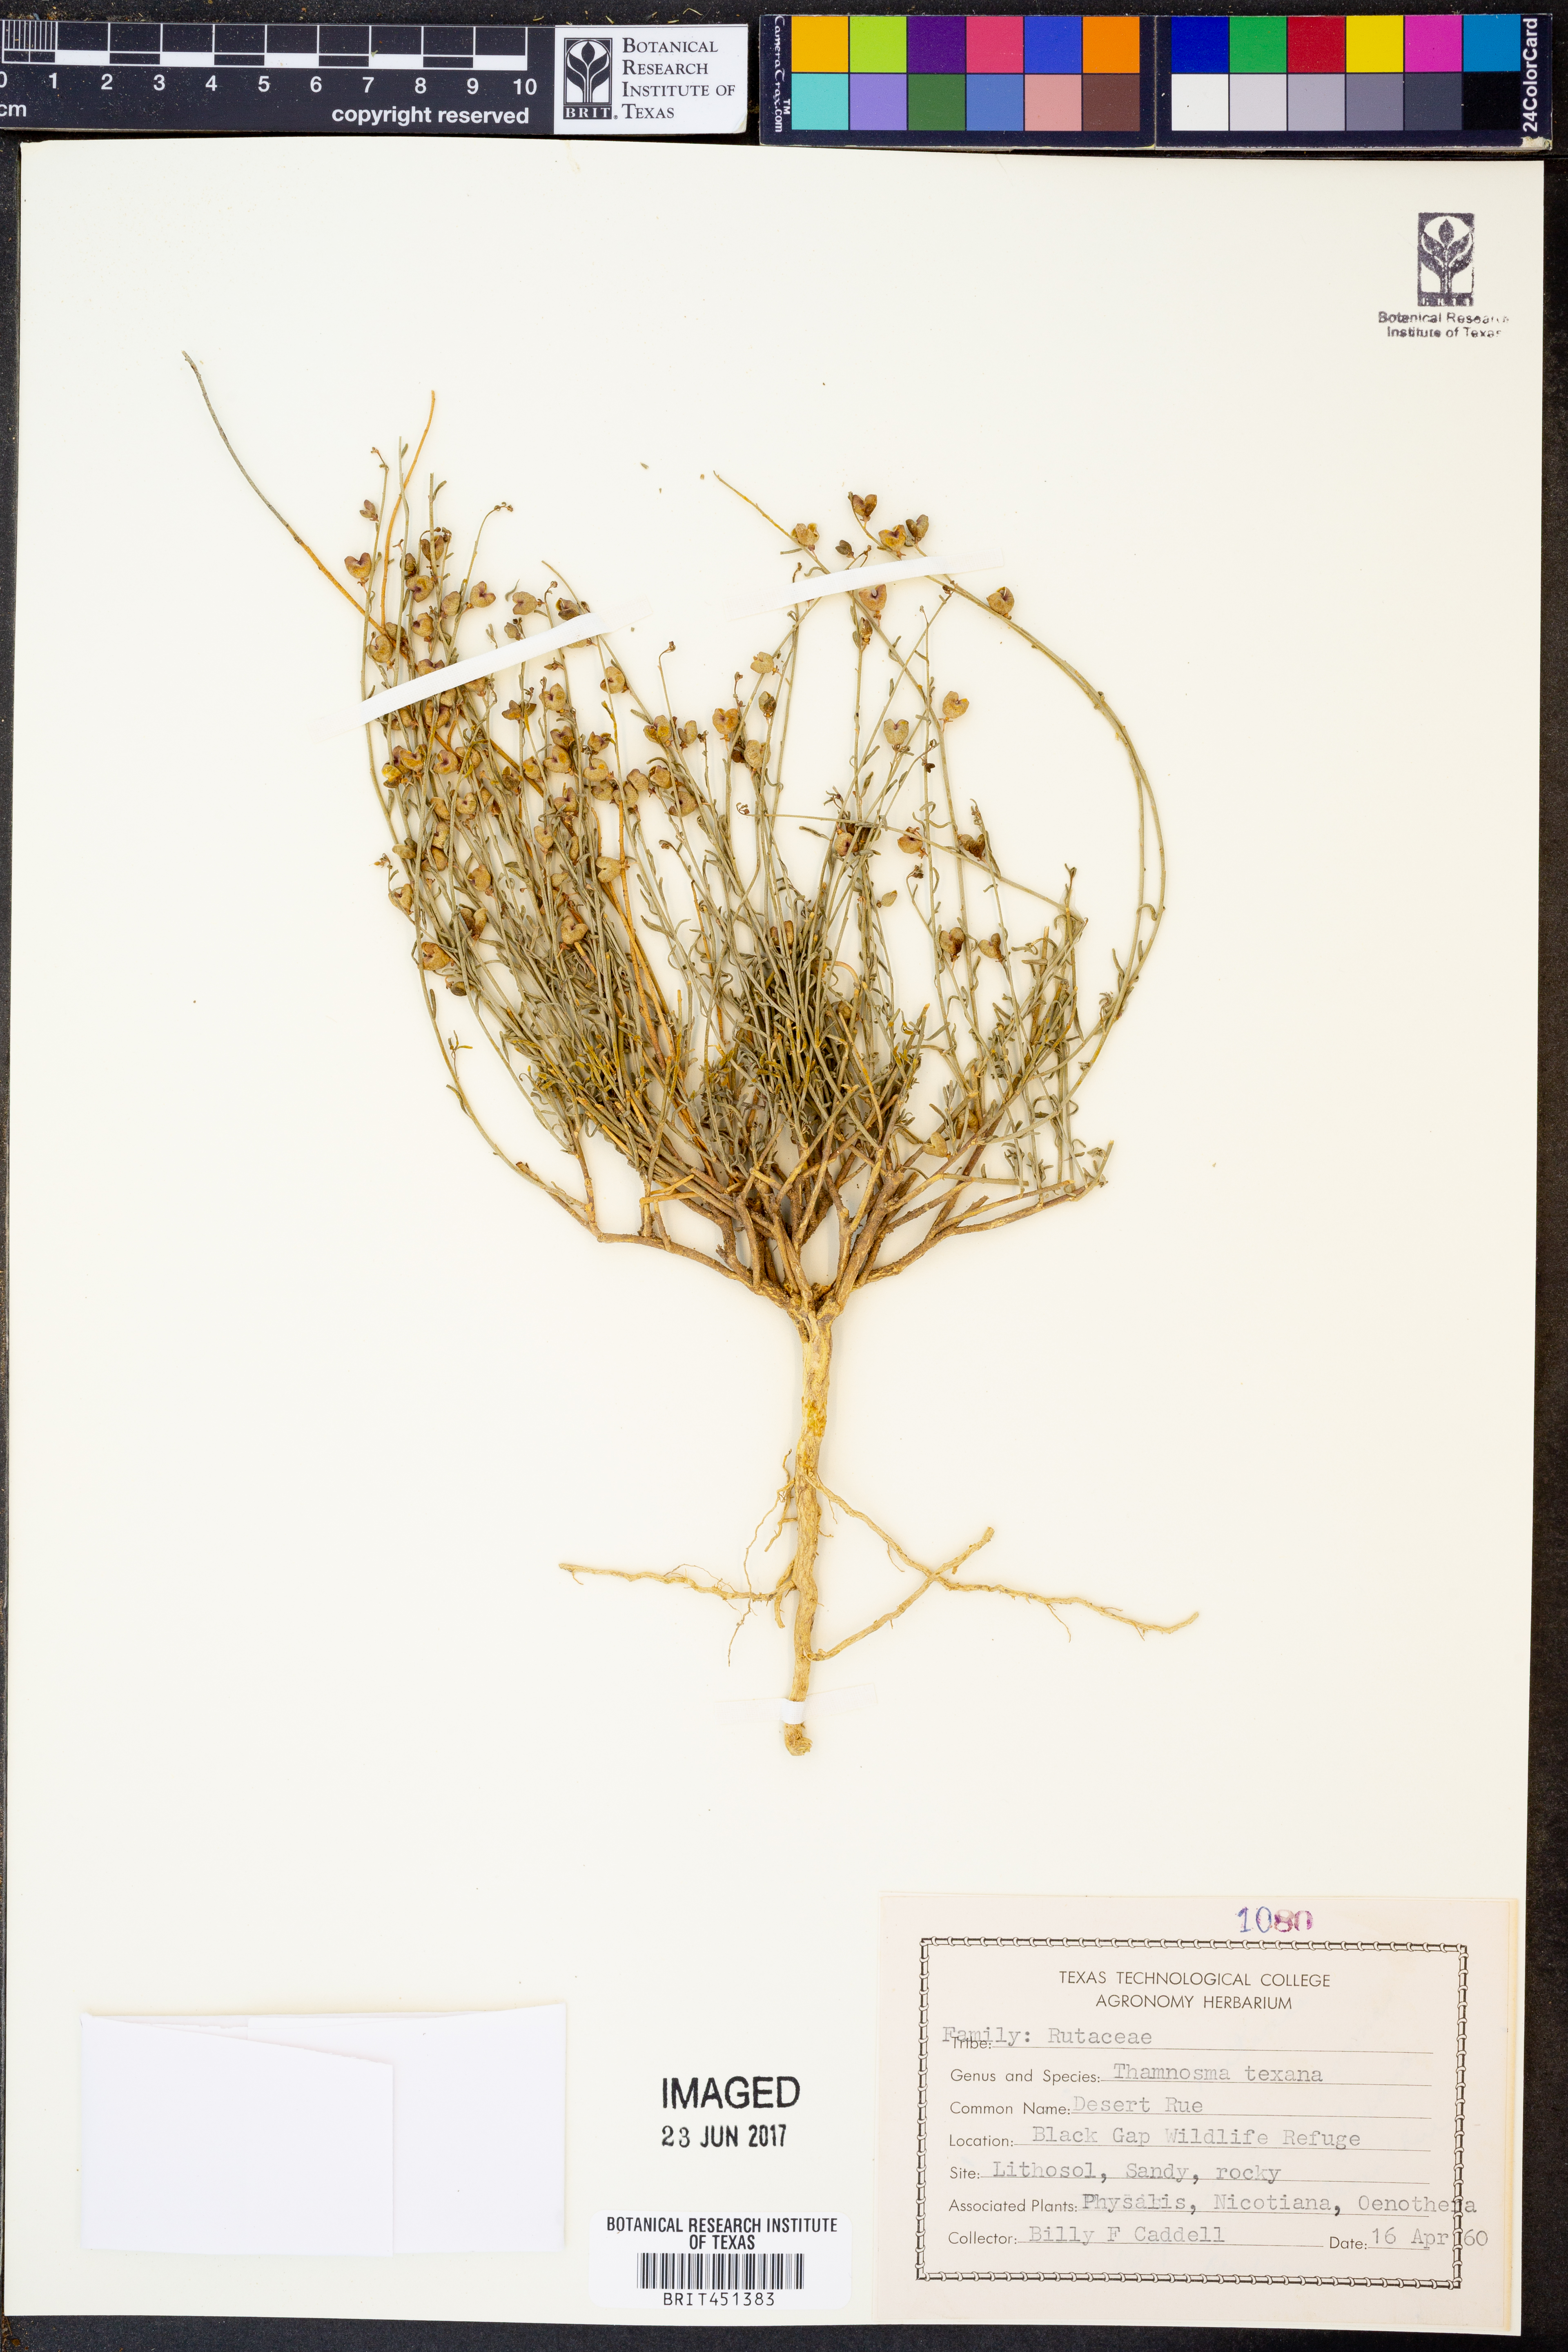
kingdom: Plantae
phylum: Tracheophyta
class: Magnoliopsida
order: Sapindales
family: Rutaceae
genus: Thamnosma
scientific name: Thamnosma texana
